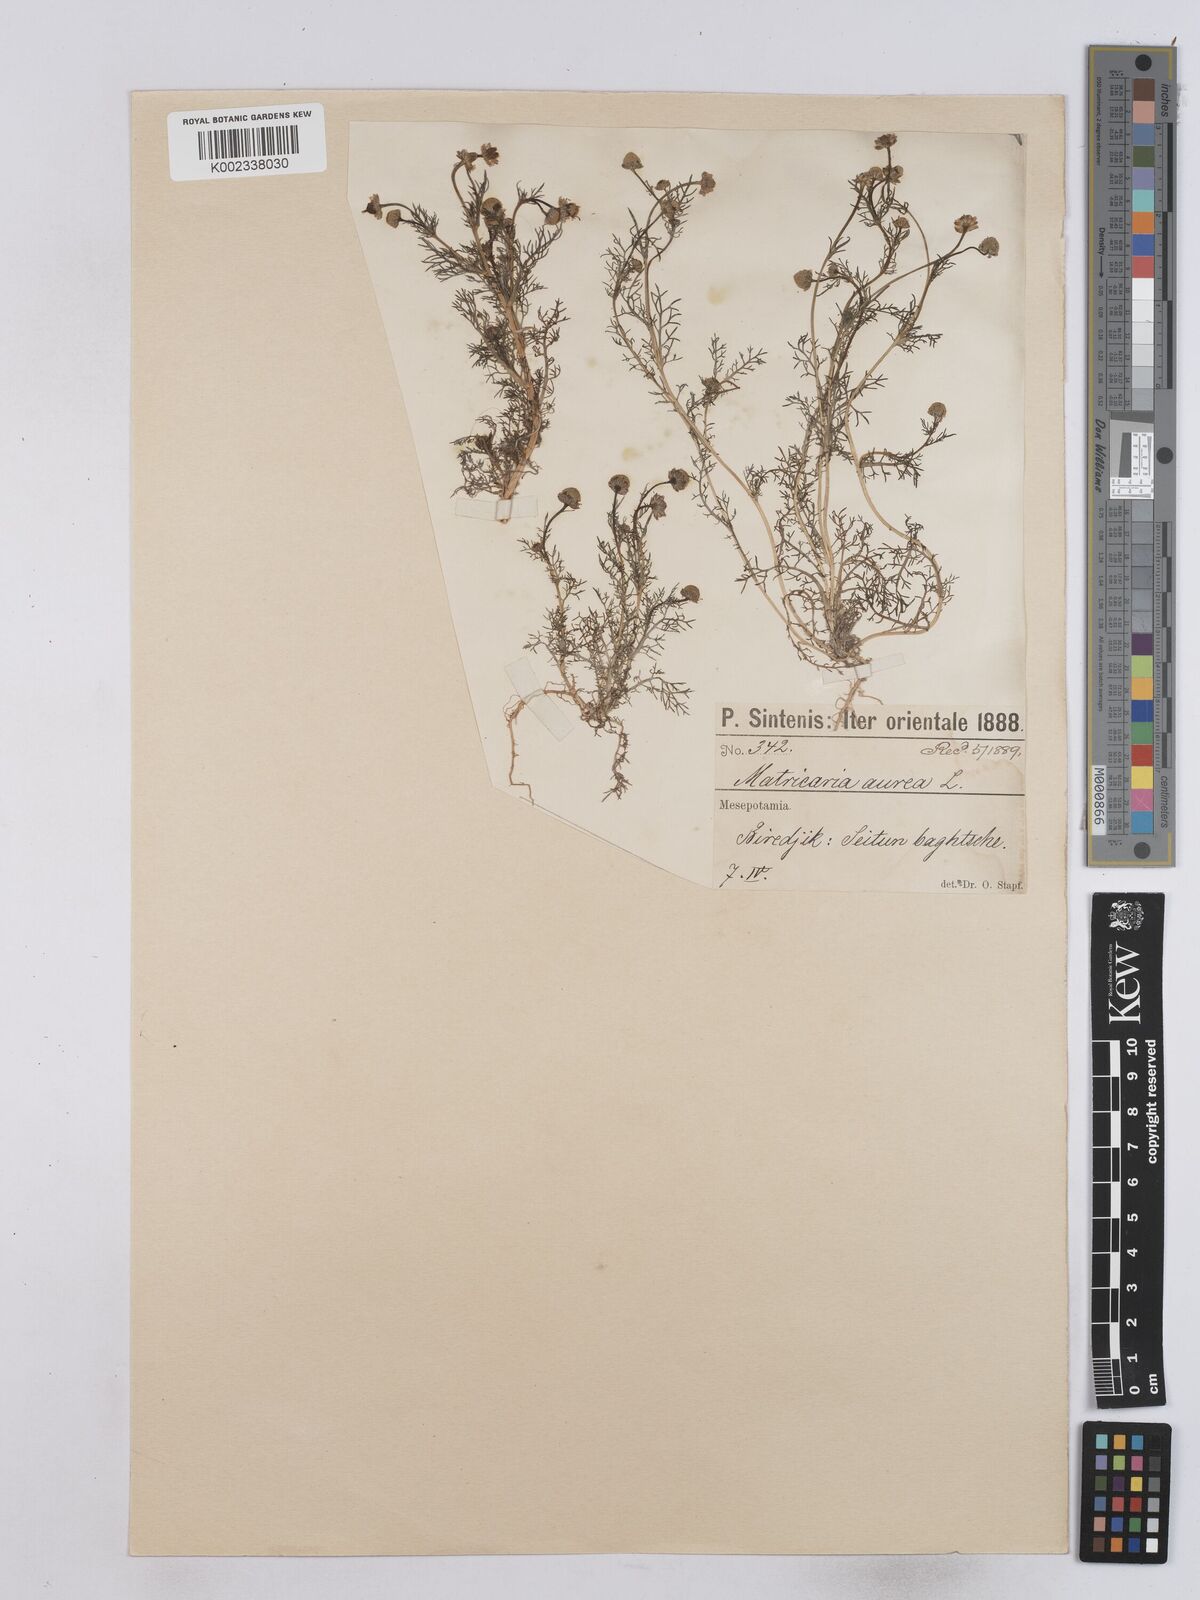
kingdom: Plantae
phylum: Tracheophyta
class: Magnoliopsida
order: Asterales
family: Asteraceae
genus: Matricaria
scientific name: Matricaria
